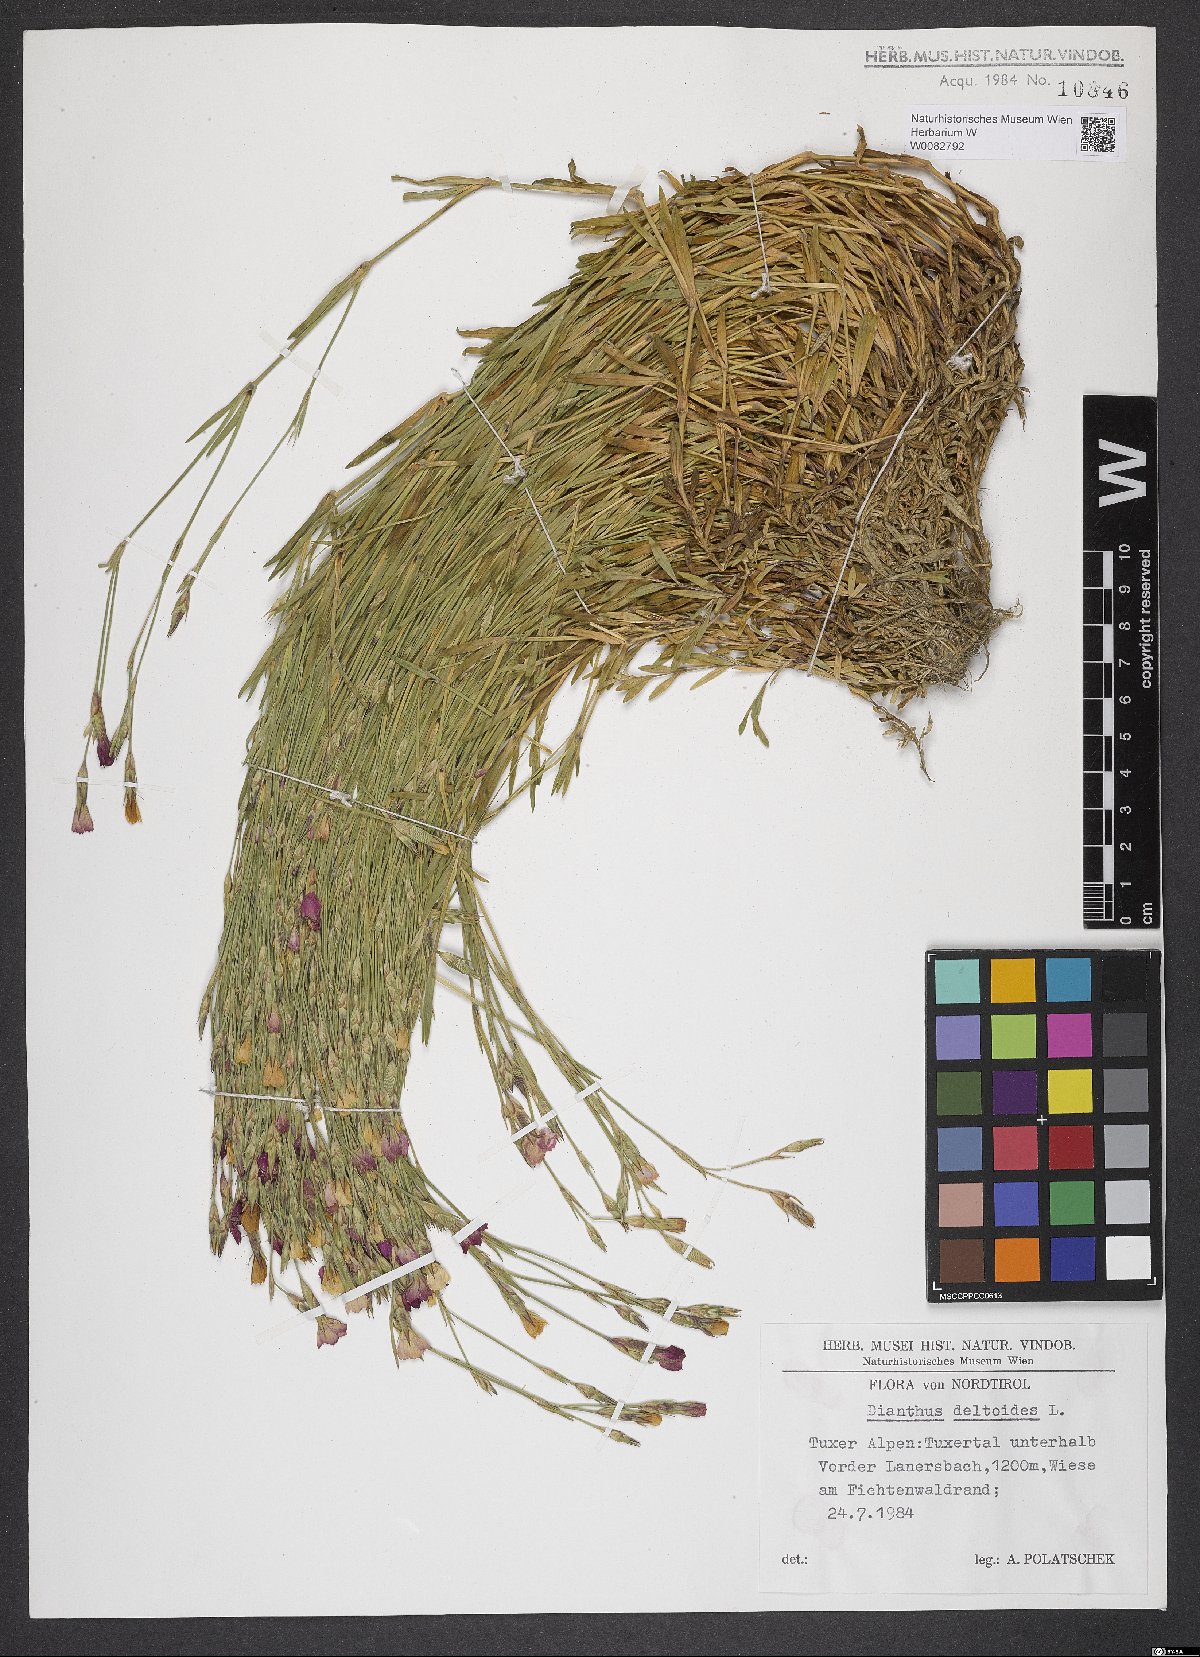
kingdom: Plantae
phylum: Tracheophyta
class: Magnoliopsida
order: Caryophyllales
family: Caryophyllaceae
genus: Dianthus
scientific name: Dianthus deltoides
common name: Maiden pink
